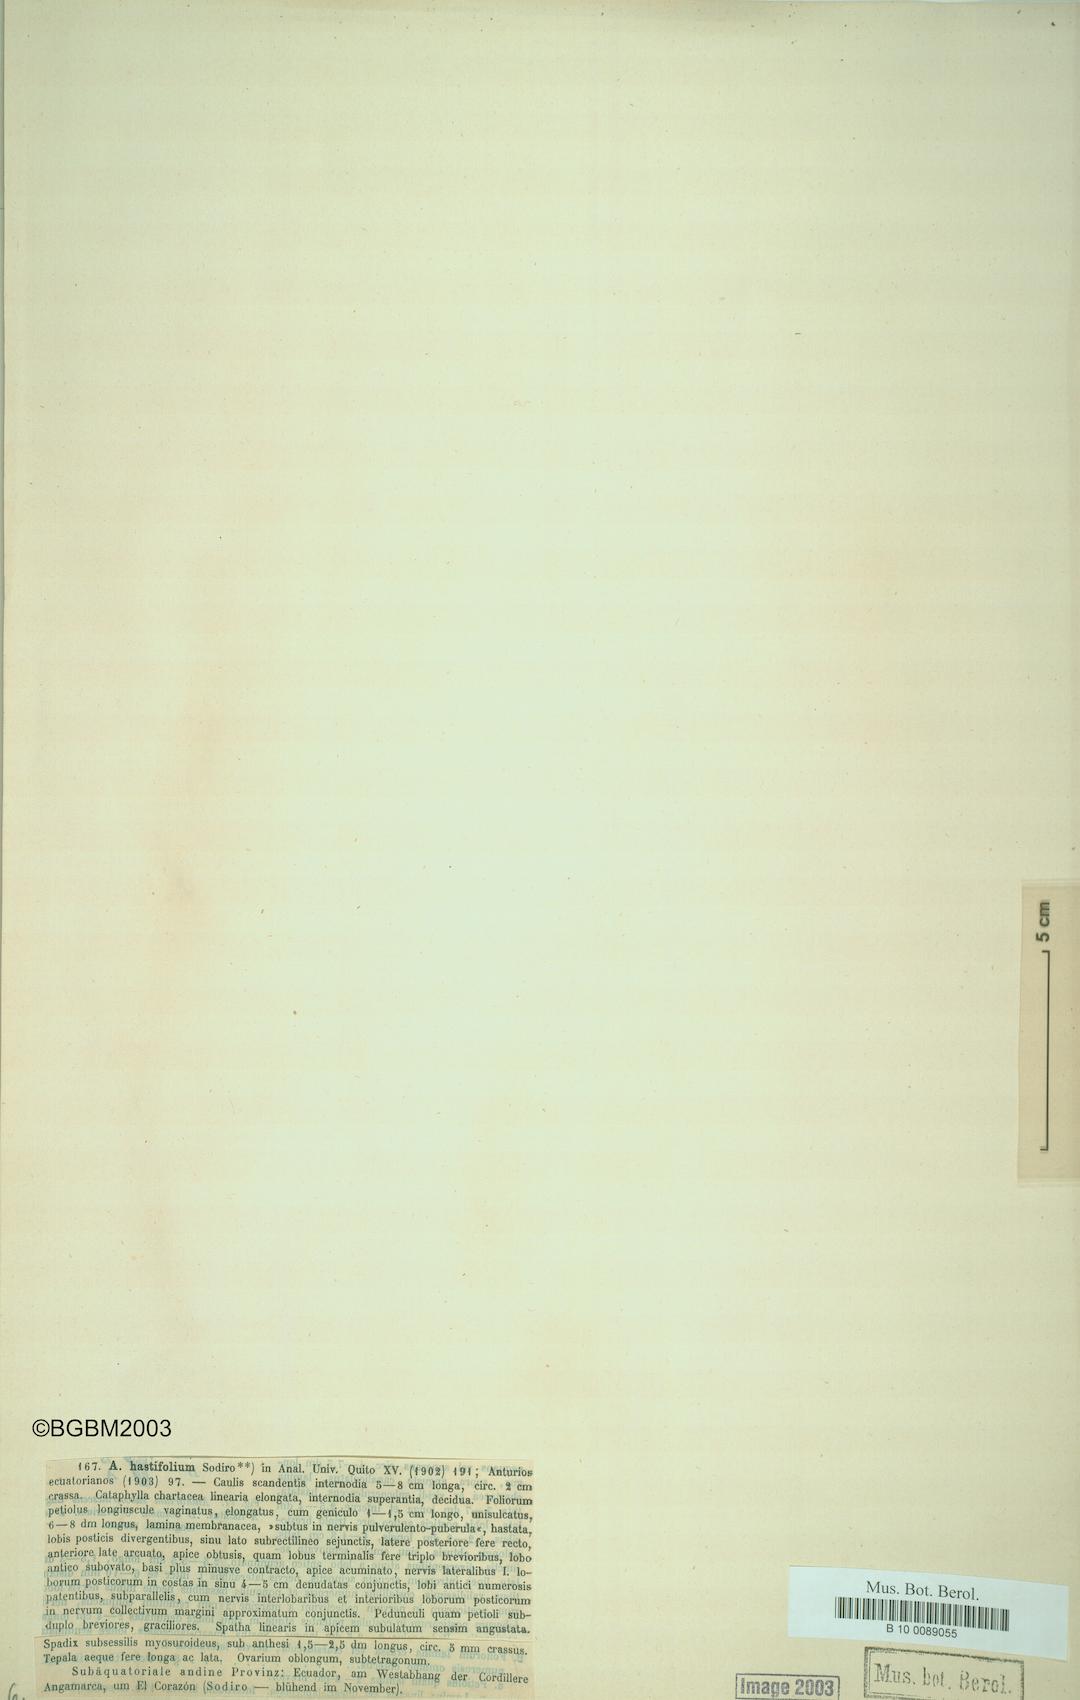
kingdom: Plantae
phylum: Tracheophyta
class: Liliopsida
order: Alismatales
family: Araceae
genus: Anthurium
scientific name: Anthurium hastifolium
